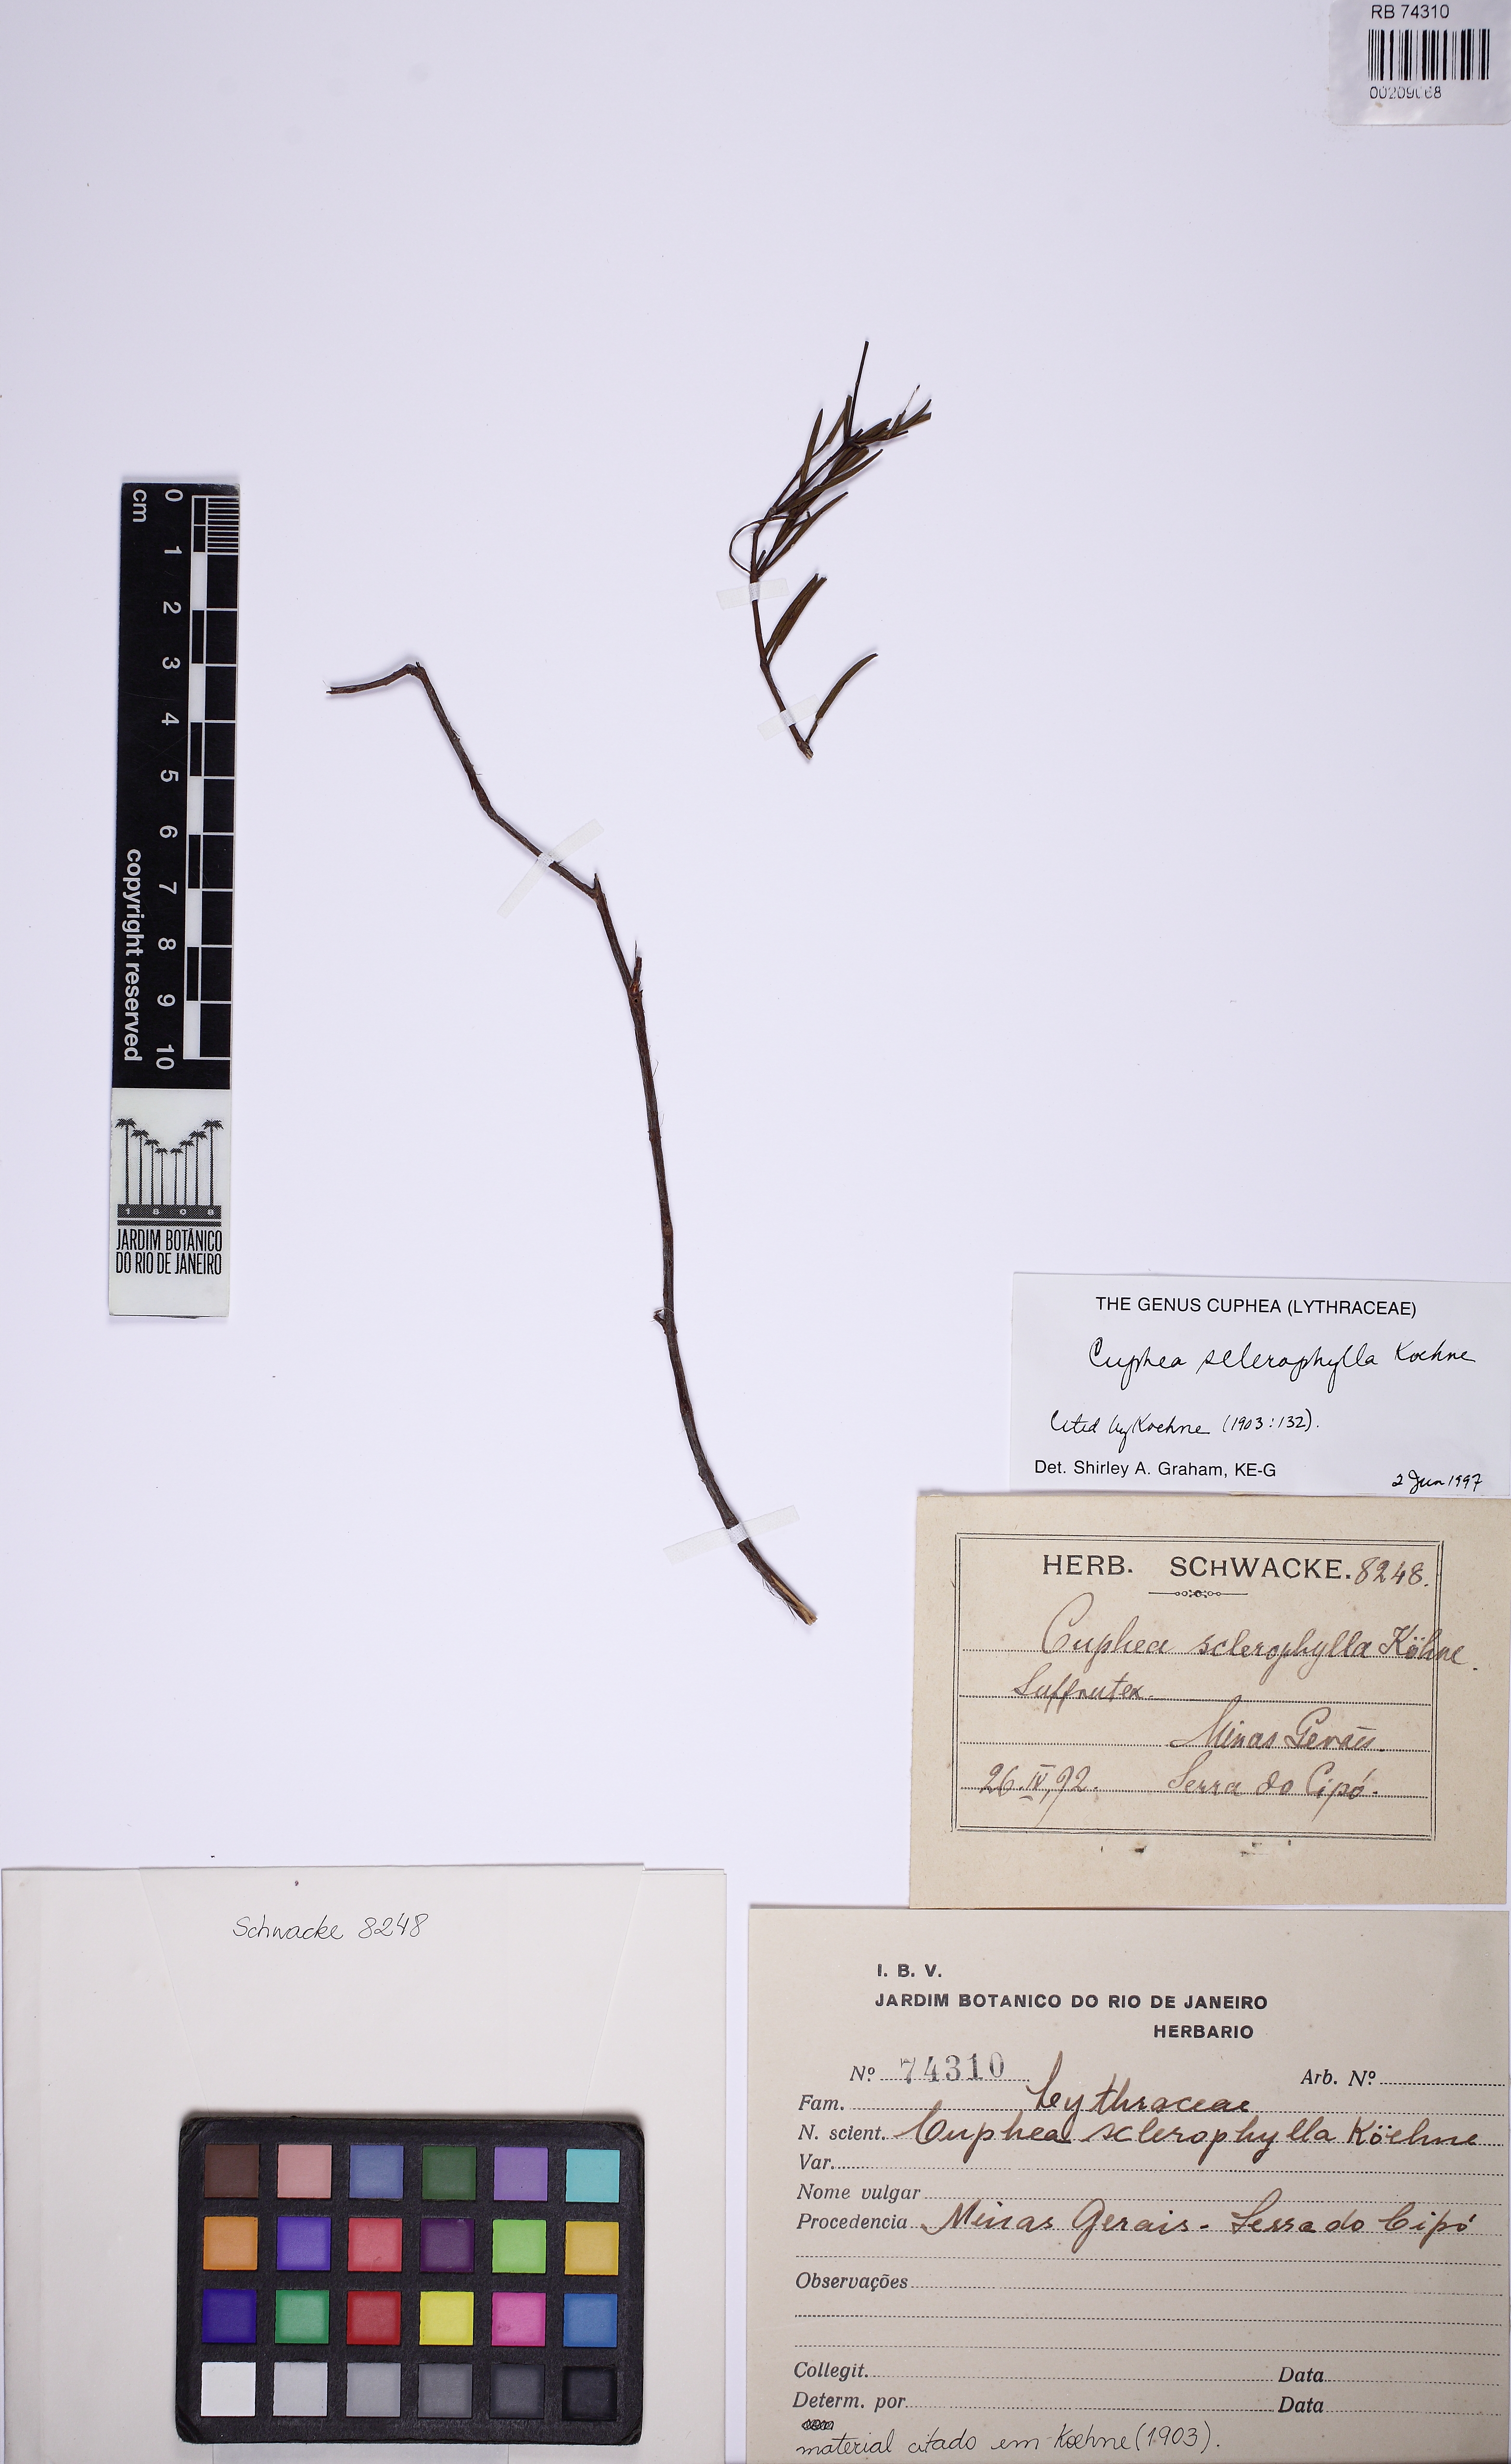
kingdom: Plantae
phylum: Tracheophyta
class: Magnoliopsida
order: Myrtales
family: Lythraceae
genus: Cuphea
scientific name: Cuphea sclerophylla
